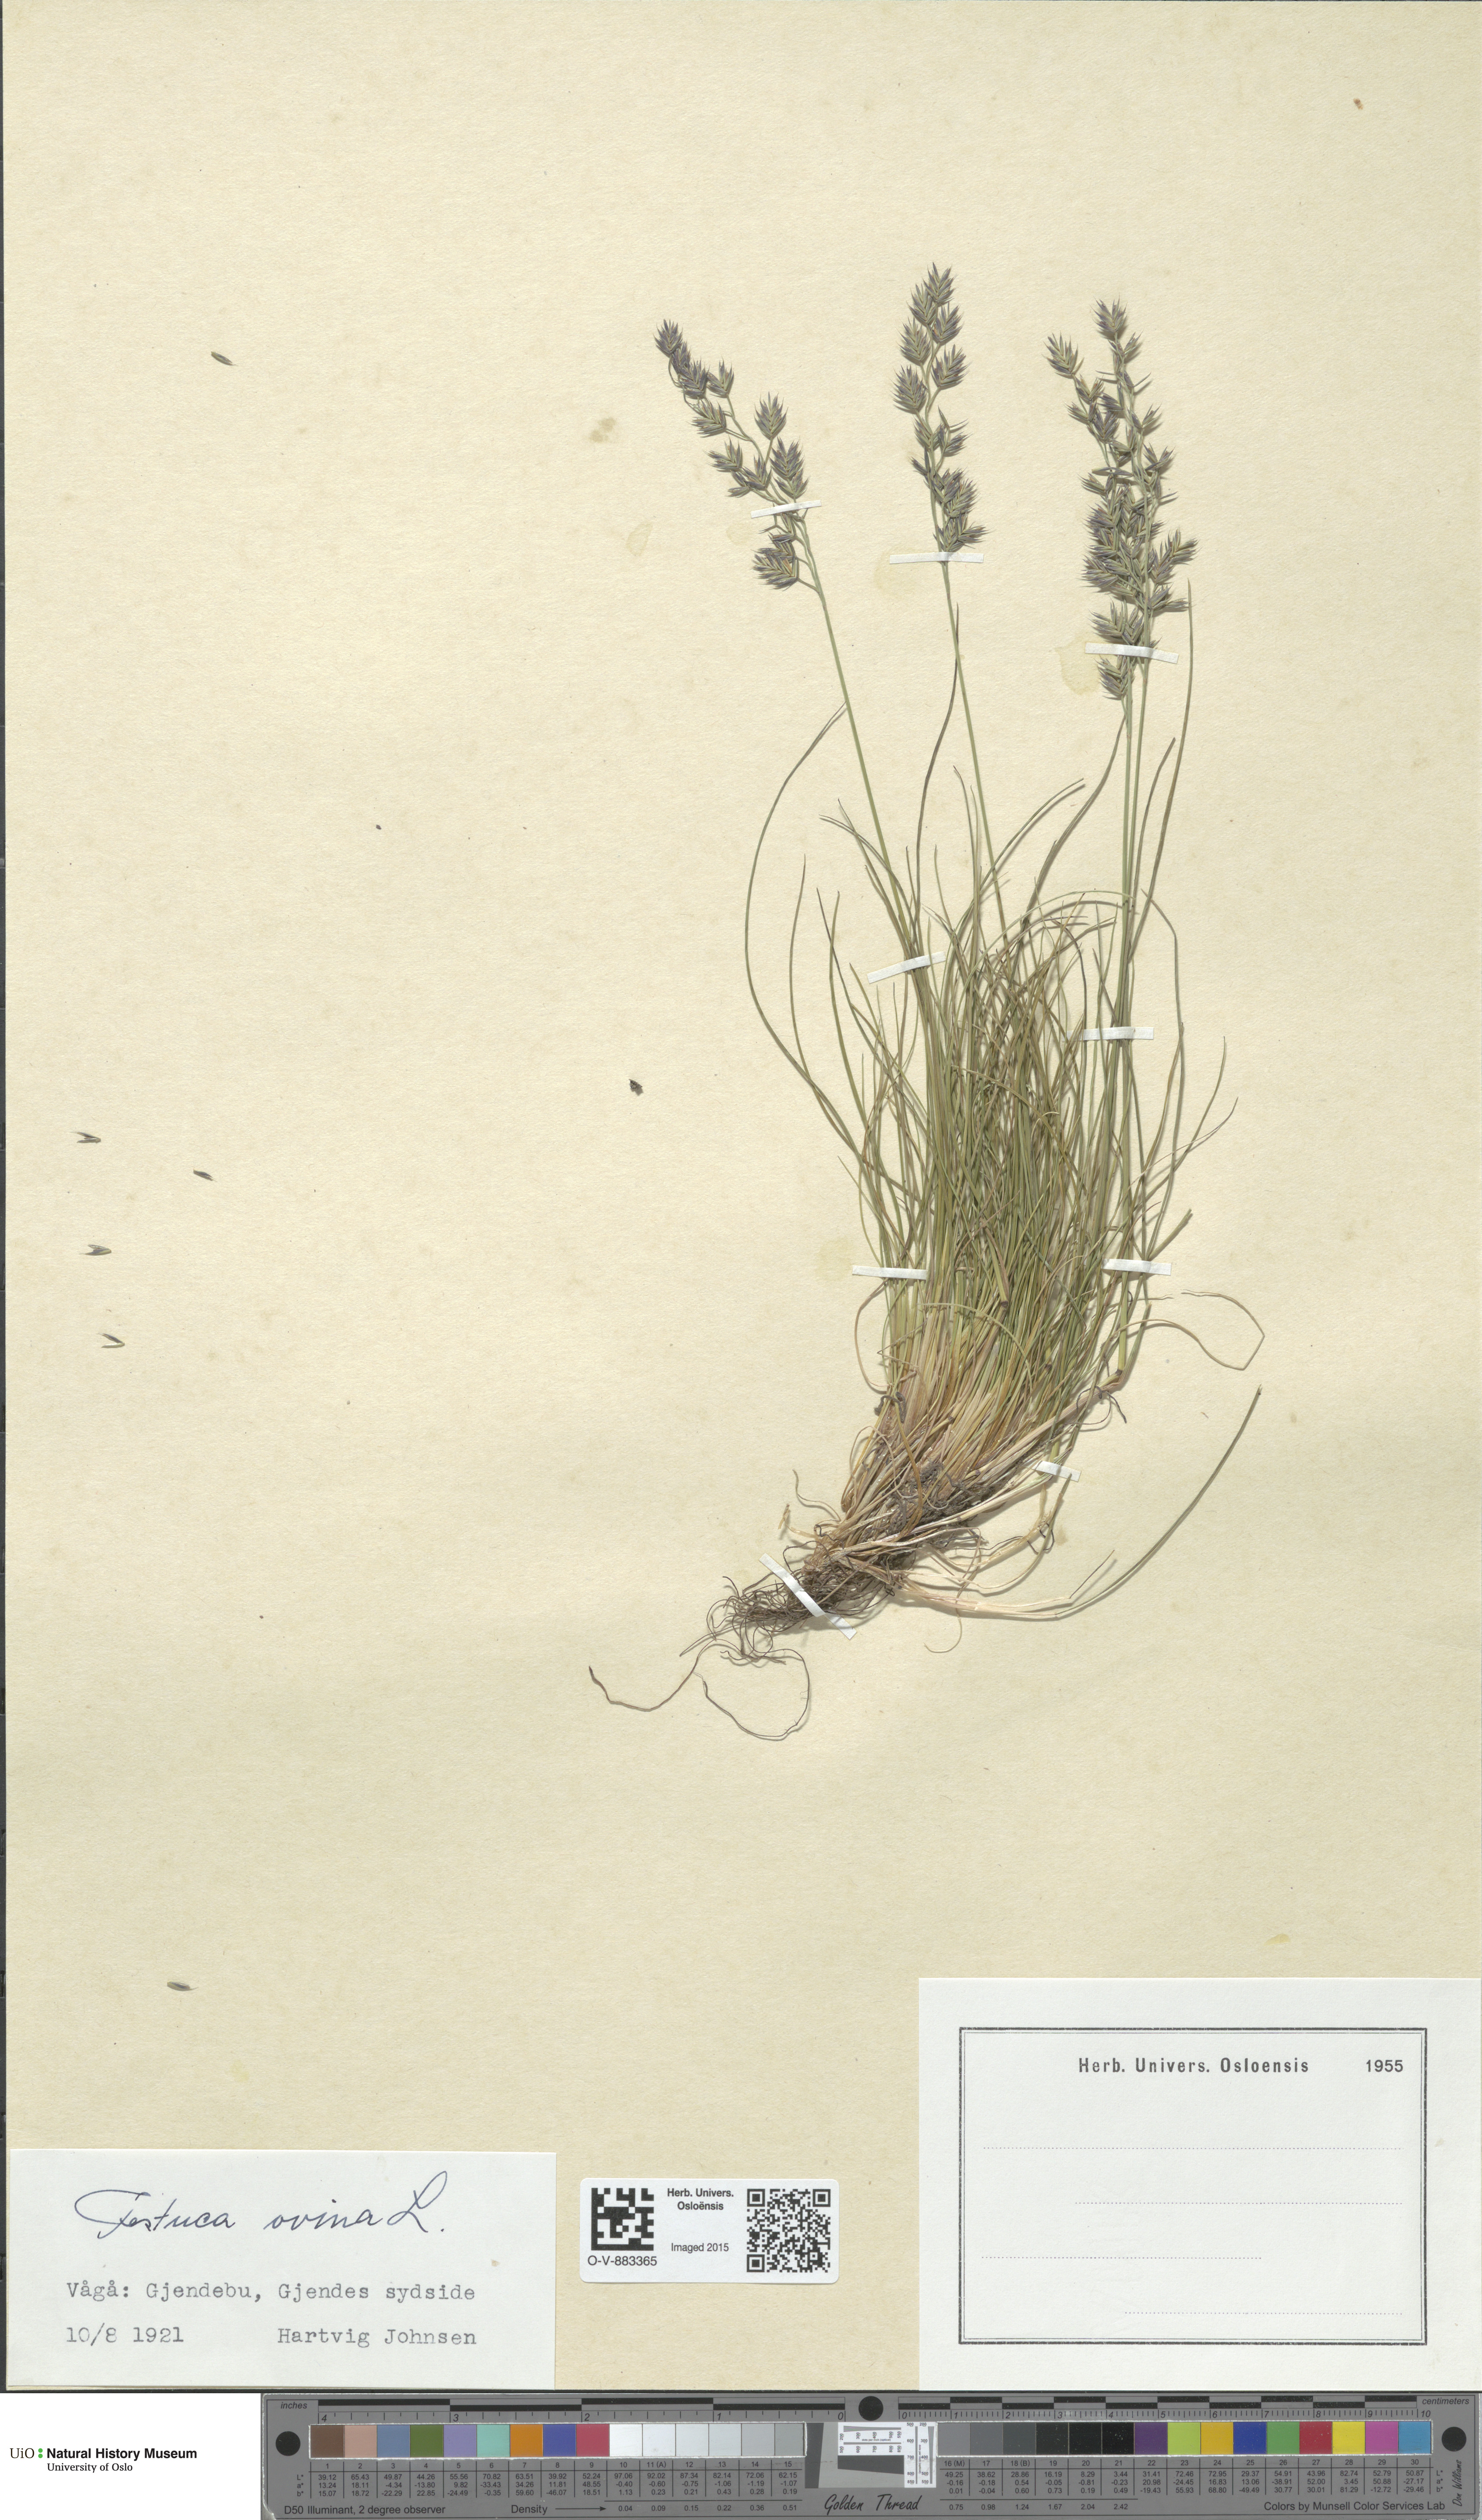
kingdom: Plantae
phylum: Tracheophyta
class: Liliopsida
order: Poales
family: Poaceae
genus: Festuca
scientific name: Festuca ovina
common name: Sheep fescue
